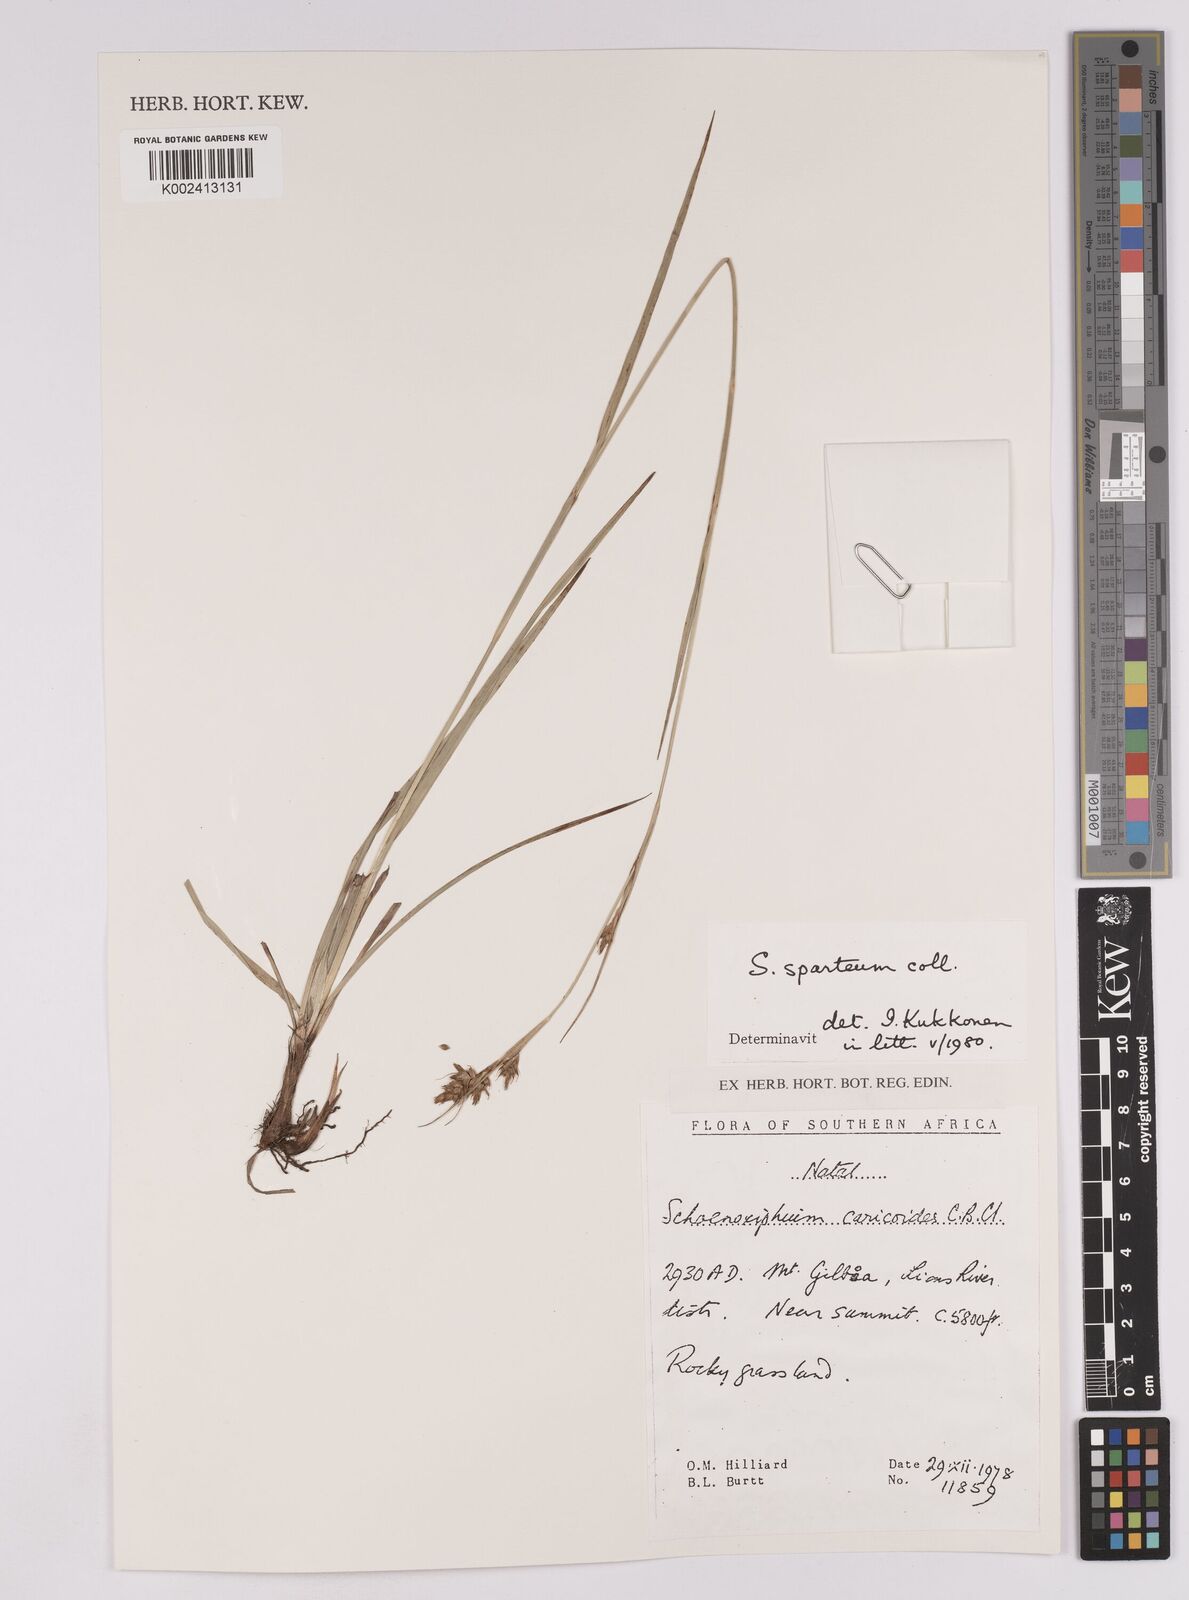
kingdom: Plantae
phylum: Tracheophyta
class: Liliopsida
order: Poales
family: Cyperaceae
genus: Carex
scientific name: Carex spartea
